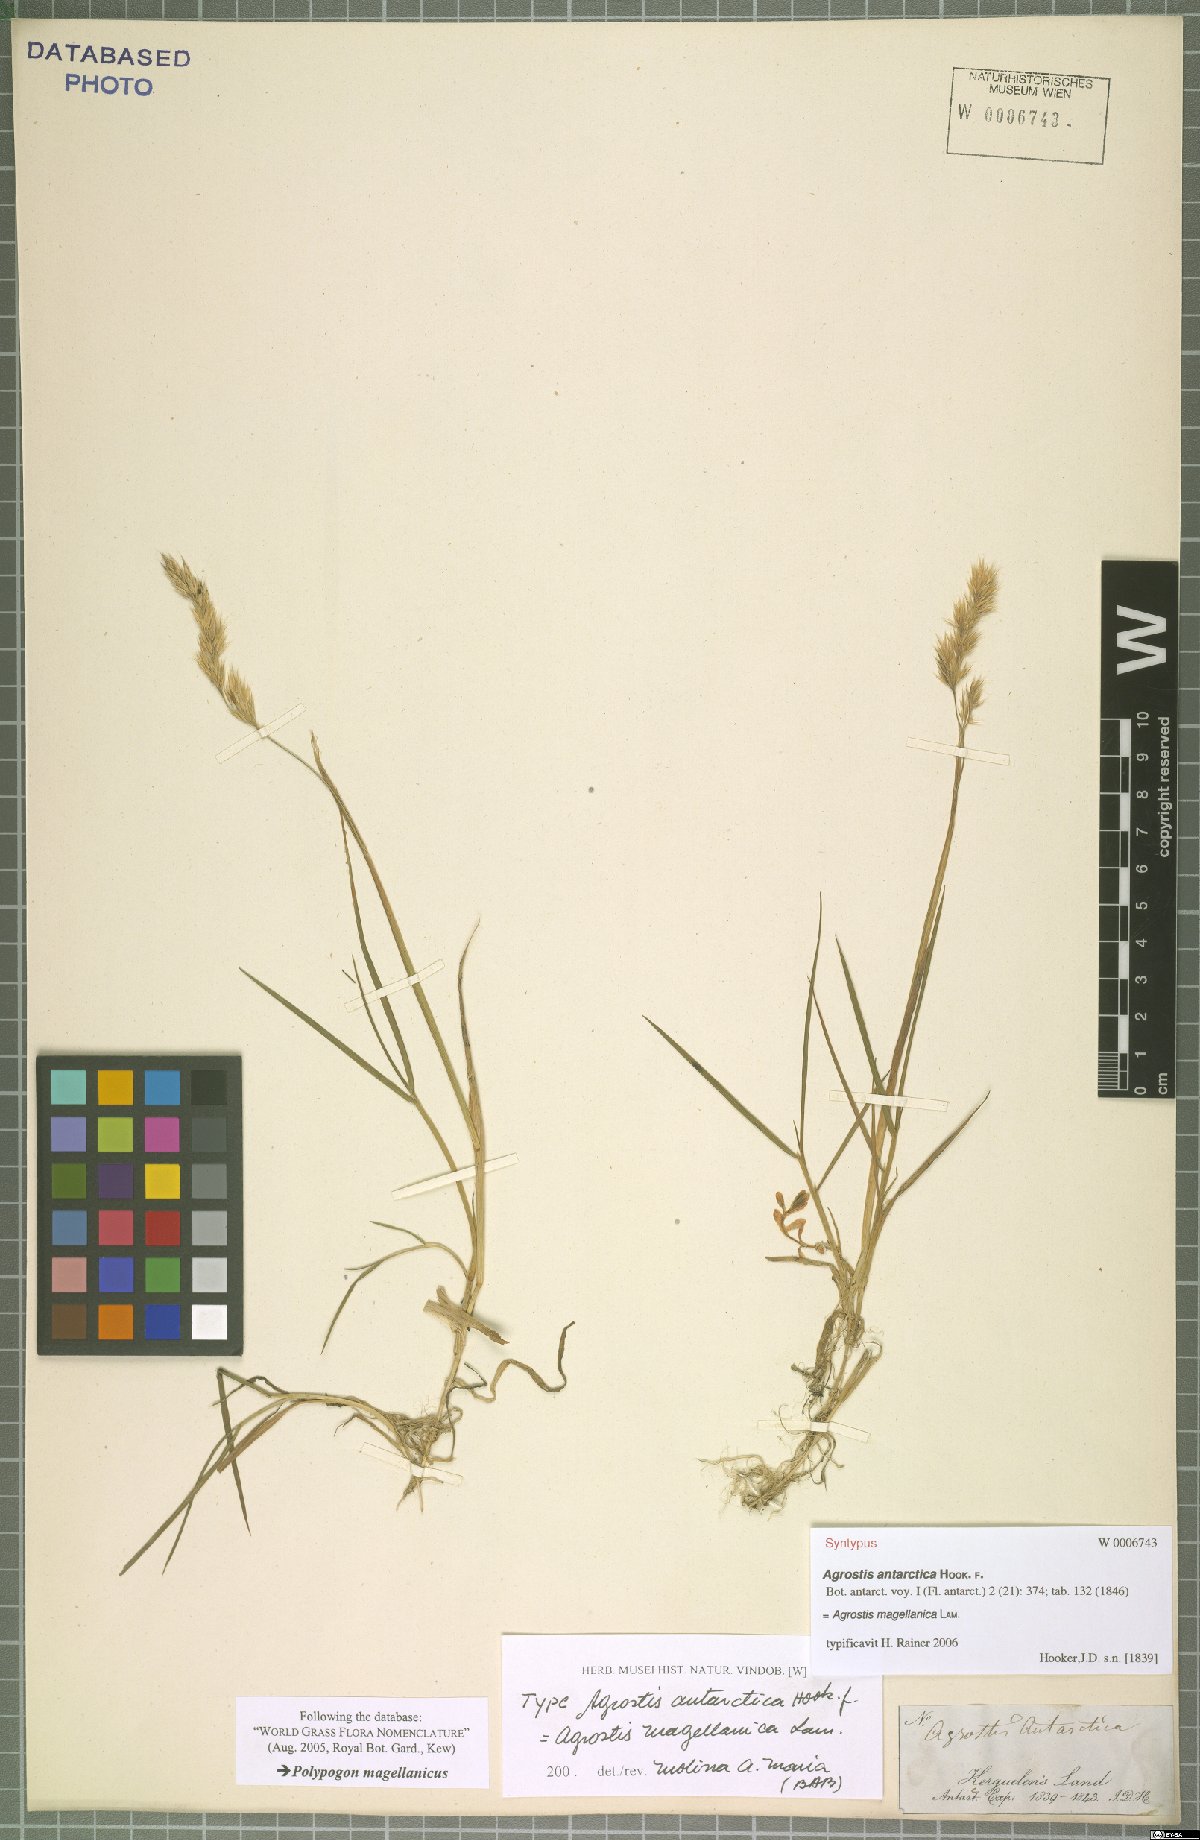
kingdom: Plantae
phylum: Tracheophyta
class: Liliopsida
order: Poales
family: Poaceae
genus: Polypogon
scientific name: Polypogon magellanicus
